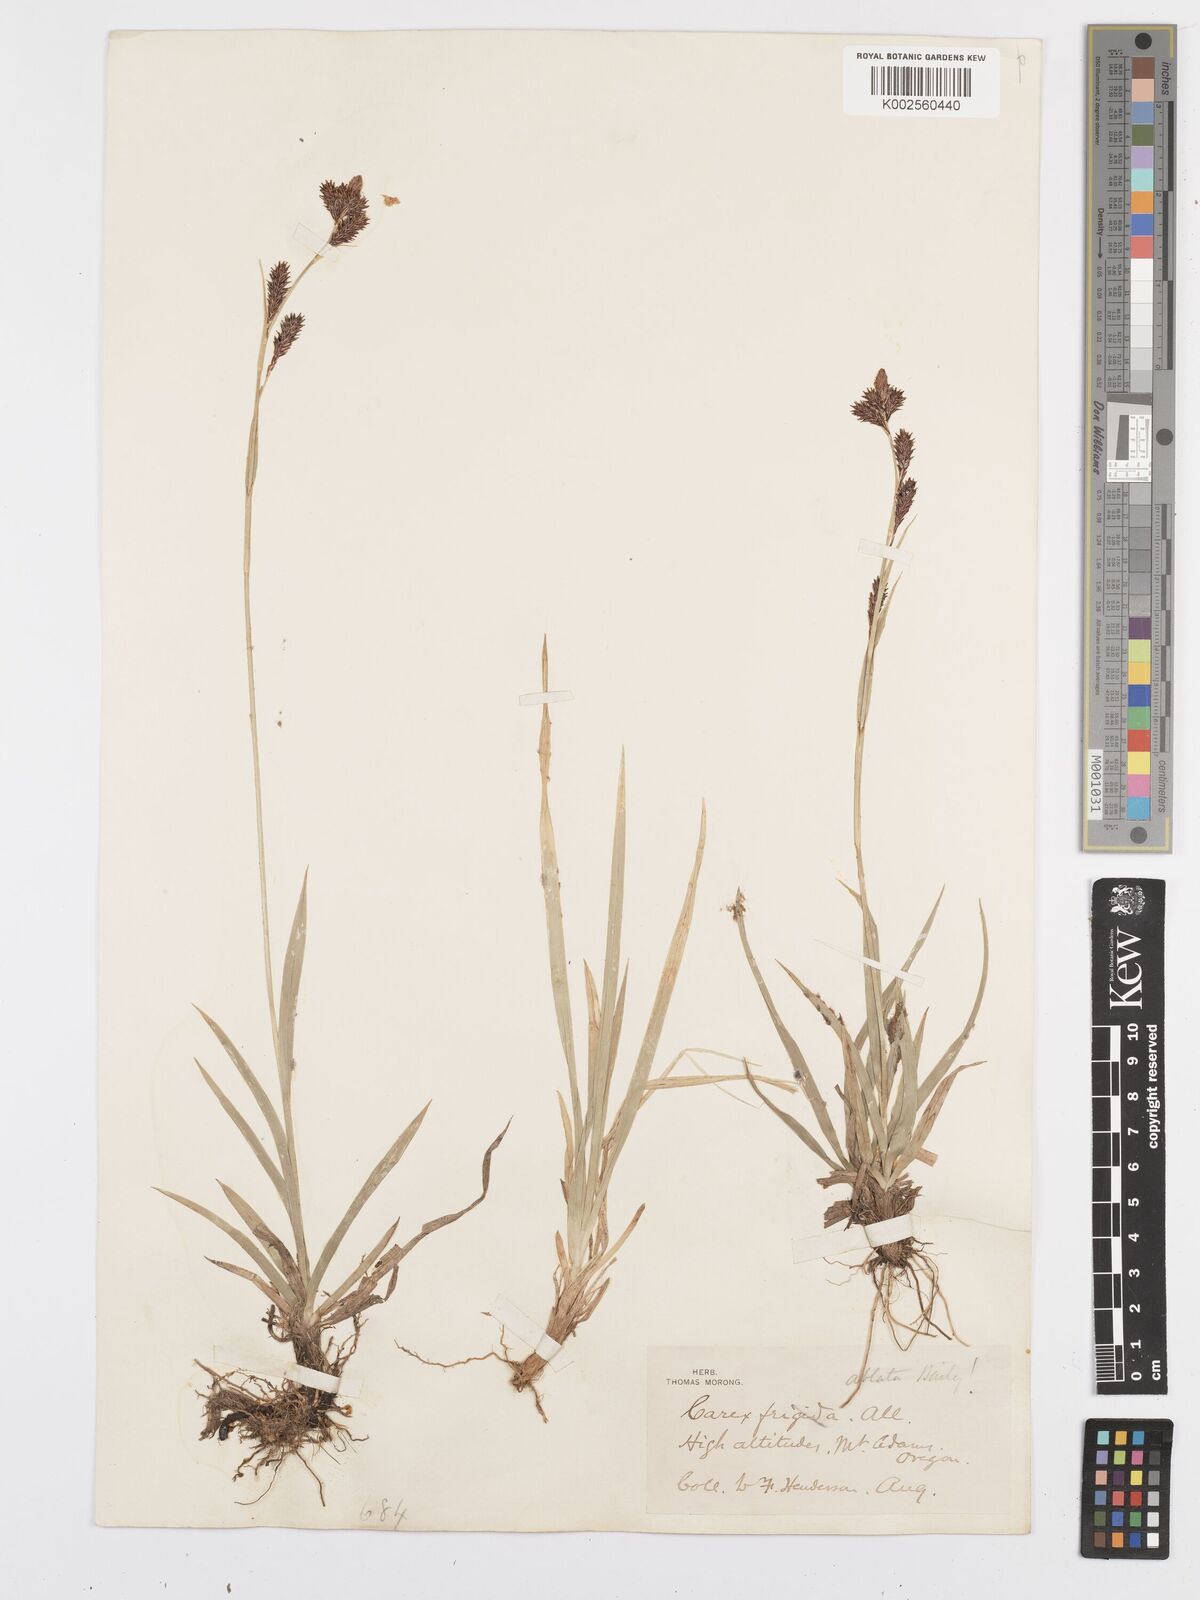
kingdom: Plantae
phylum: Tracheophyta
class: Liliopsida
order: Poales
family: Cyperaceae
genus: Carex
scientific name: Carex luzulina
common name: Spring sedge
